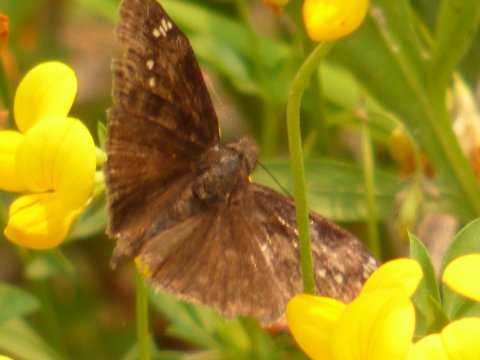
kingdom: Animalia
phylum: Arthropoda
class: Insecta
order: Lepidoptera
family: Hesperiidae
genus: Gesta
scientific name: Gesta
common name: Horace's Duskywing
